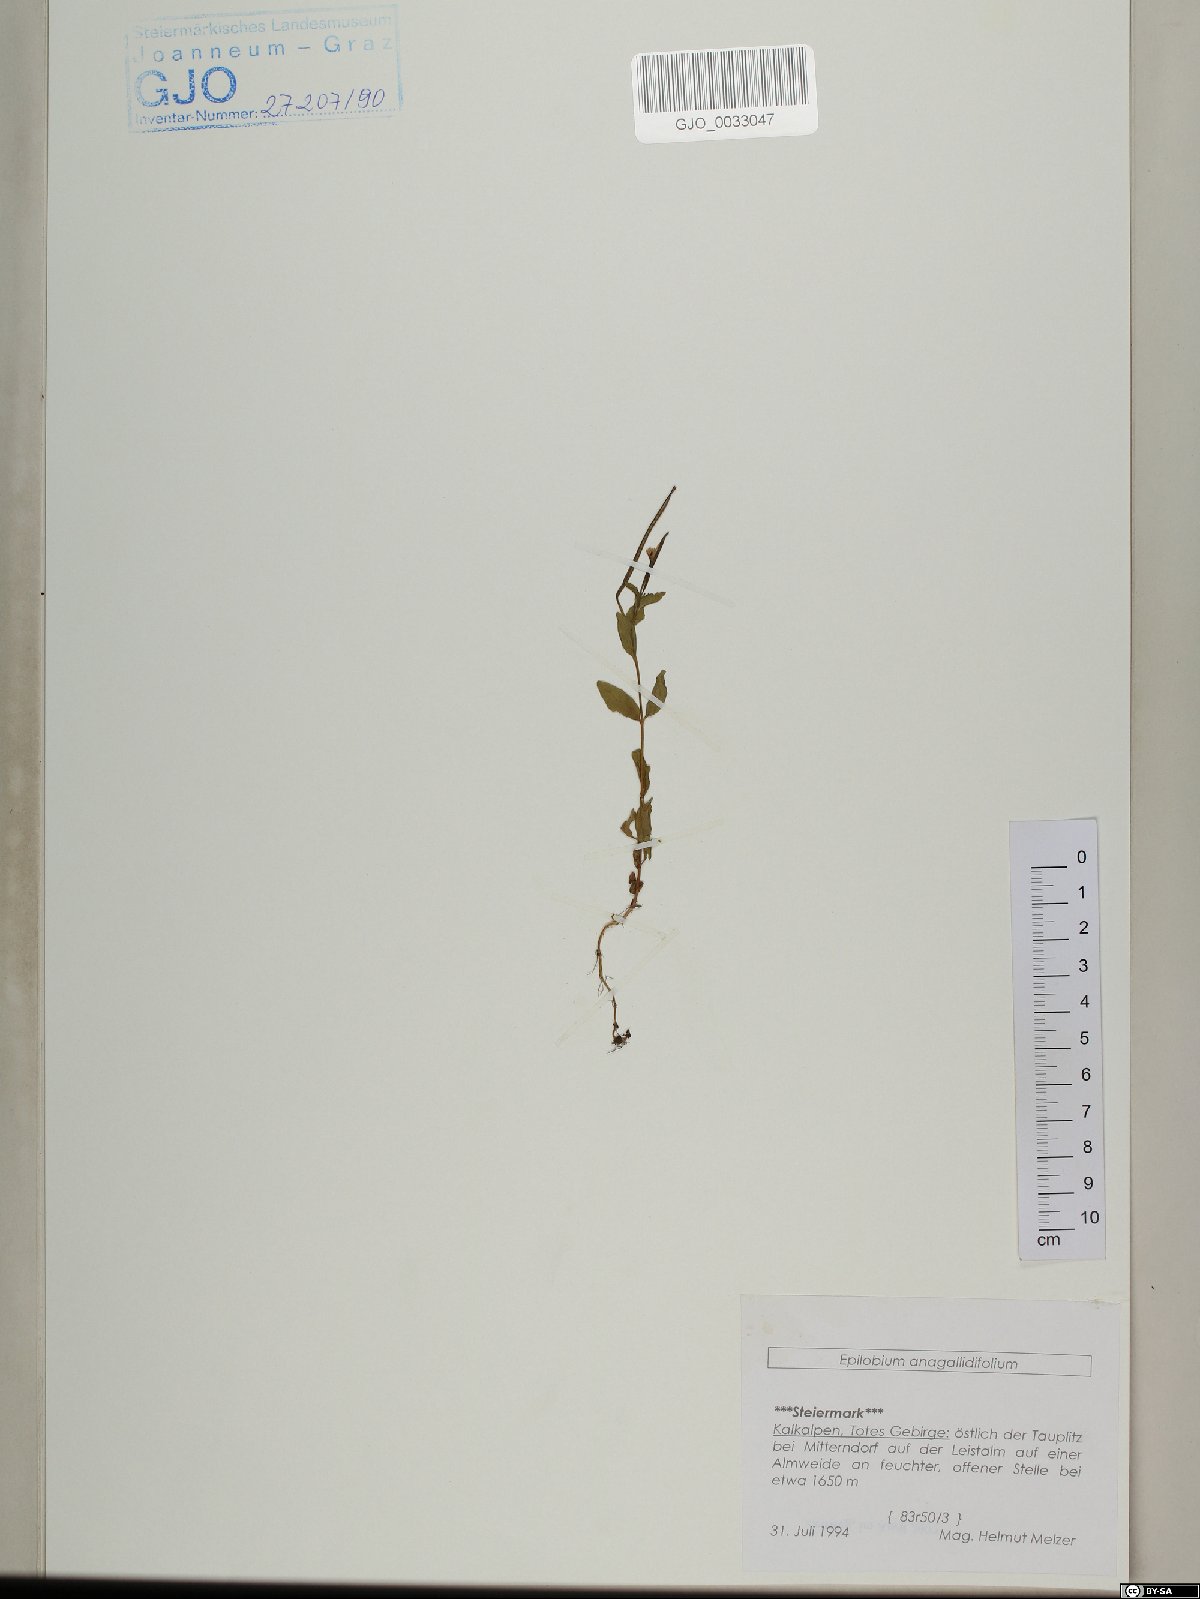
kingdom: Plantae
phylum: Tracheophyta
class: Magnoliopsida
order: Myrtales
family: Onagraceae
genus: Epilobium
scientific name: Epilobium anagallidifolium
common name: Alpine willowherb
